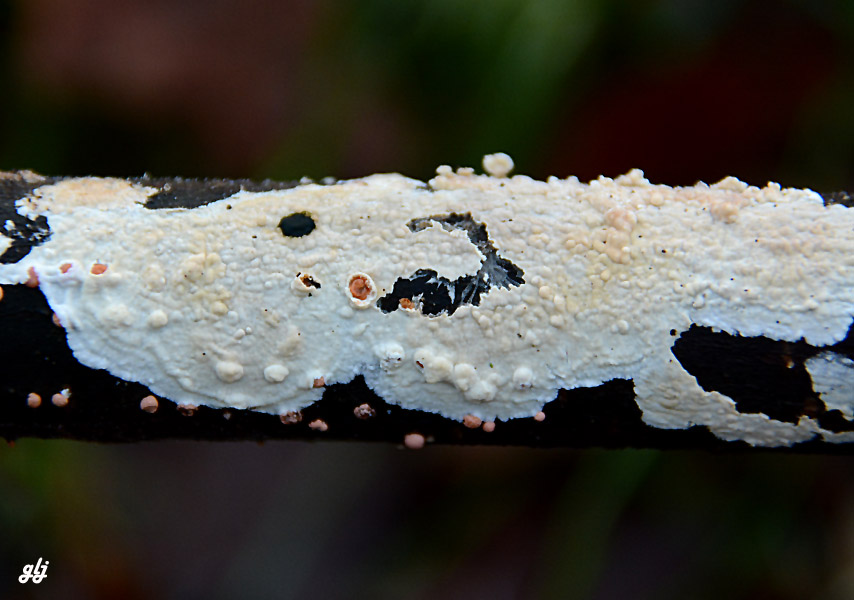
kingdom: Fungi
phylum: Basidiomycota
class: Agaricomycetes
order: Corticiales
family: Corticiaceae
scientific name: Corticiaceae
